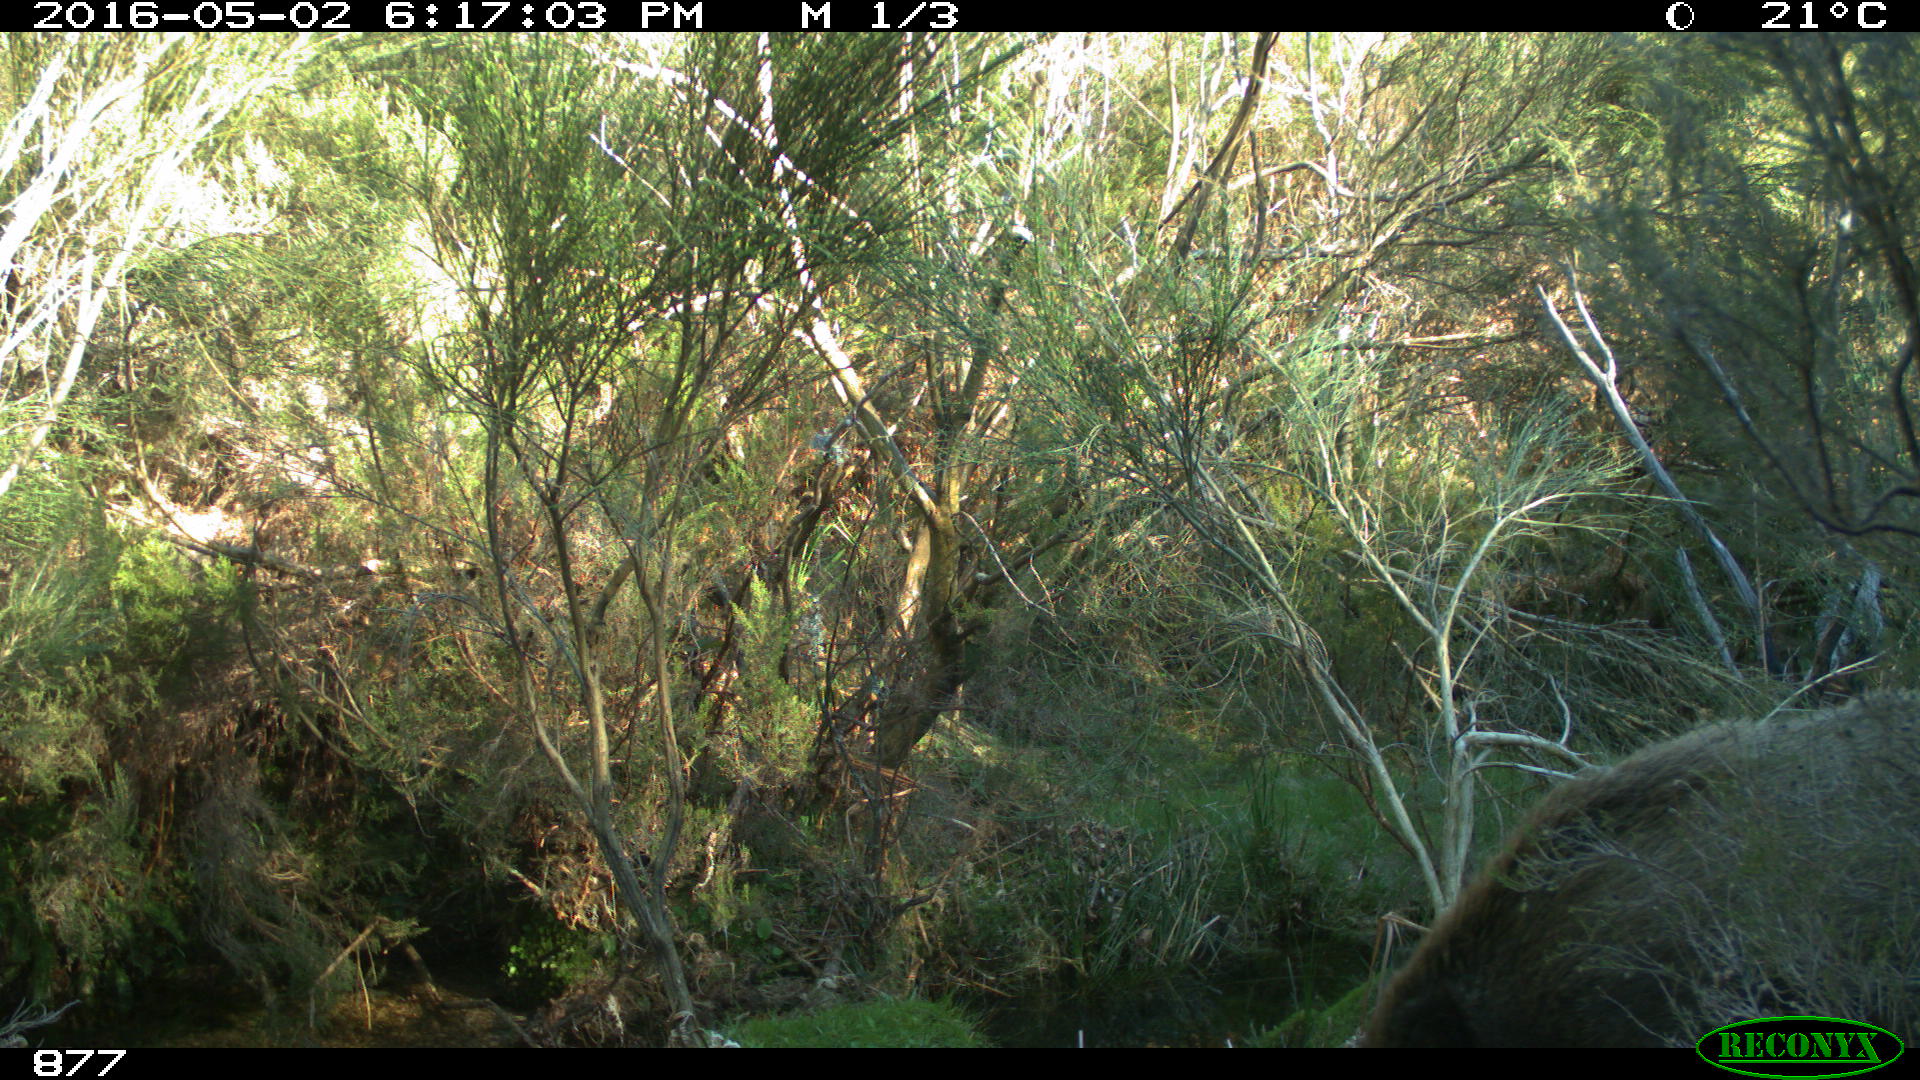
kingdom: Animalia
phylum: Chordata
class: Mammalia
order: Artiodactyla
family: Suidae
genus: Sus
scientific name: Sus scrofa
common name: Wild boar
